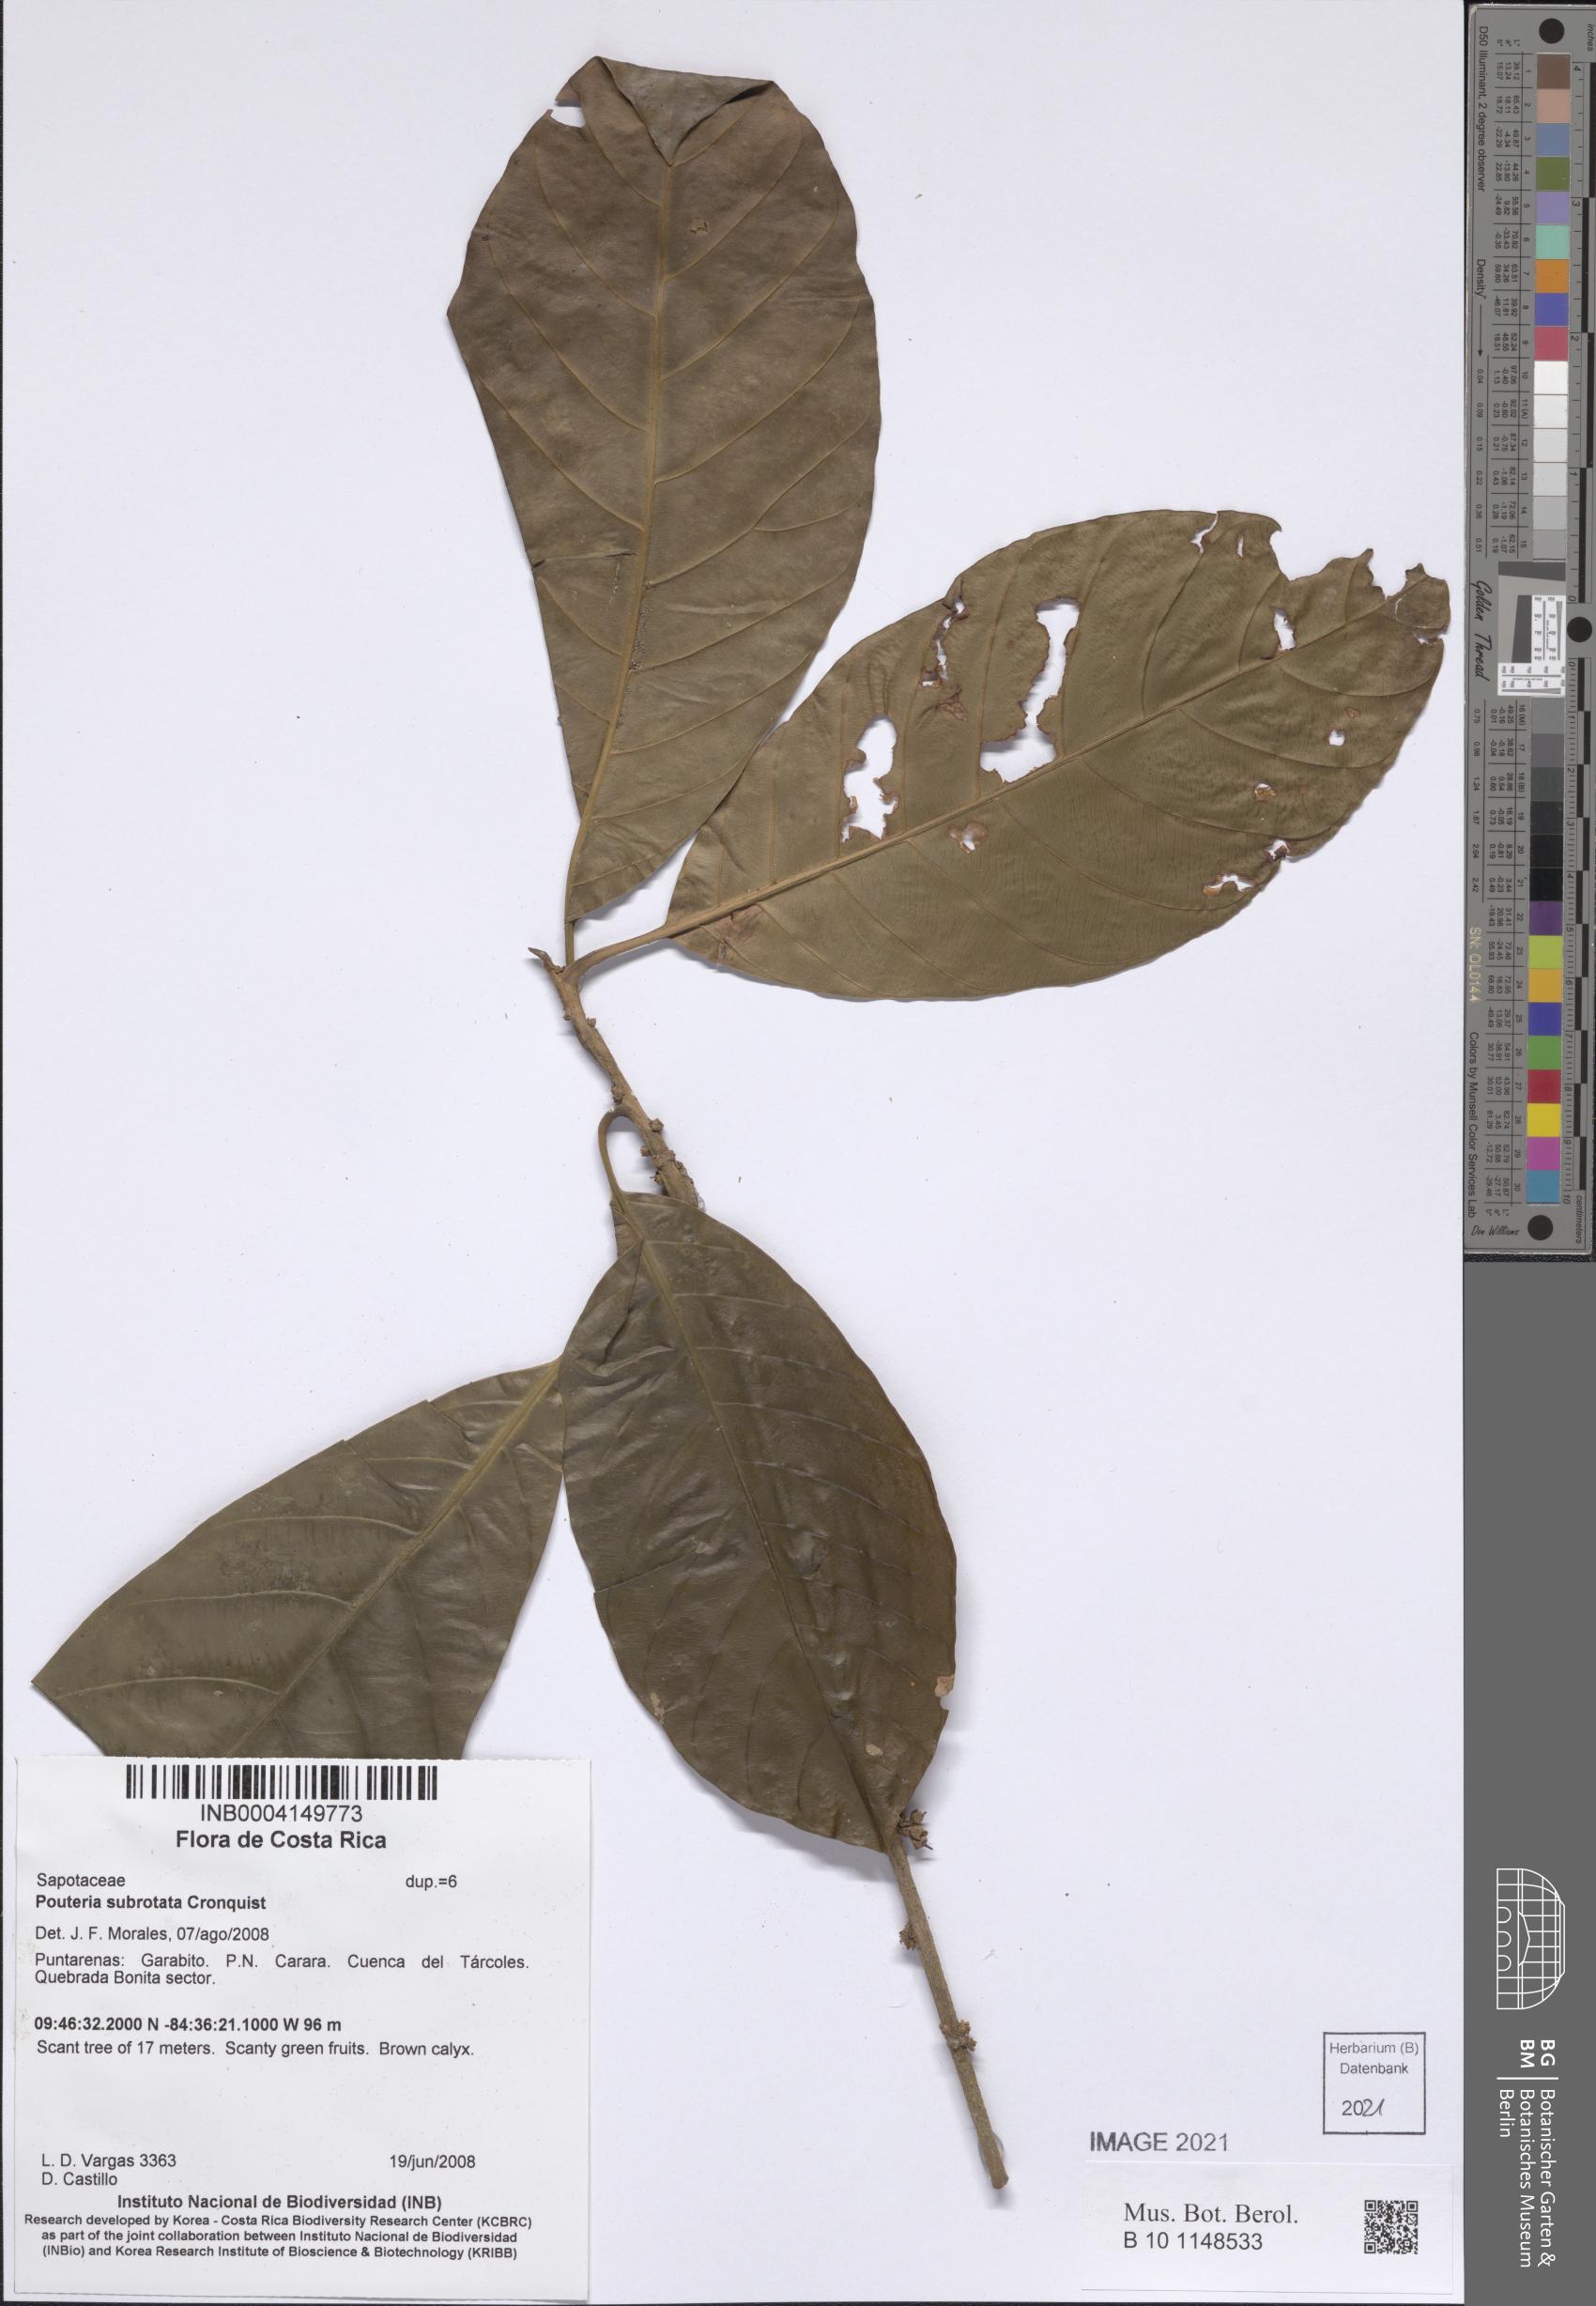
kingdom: Plantae
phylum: Tracheophyta
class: Magnoliopsida
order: Ericales
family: Sapotaceae
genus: Pouteria
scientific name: Pouteria subrotata
